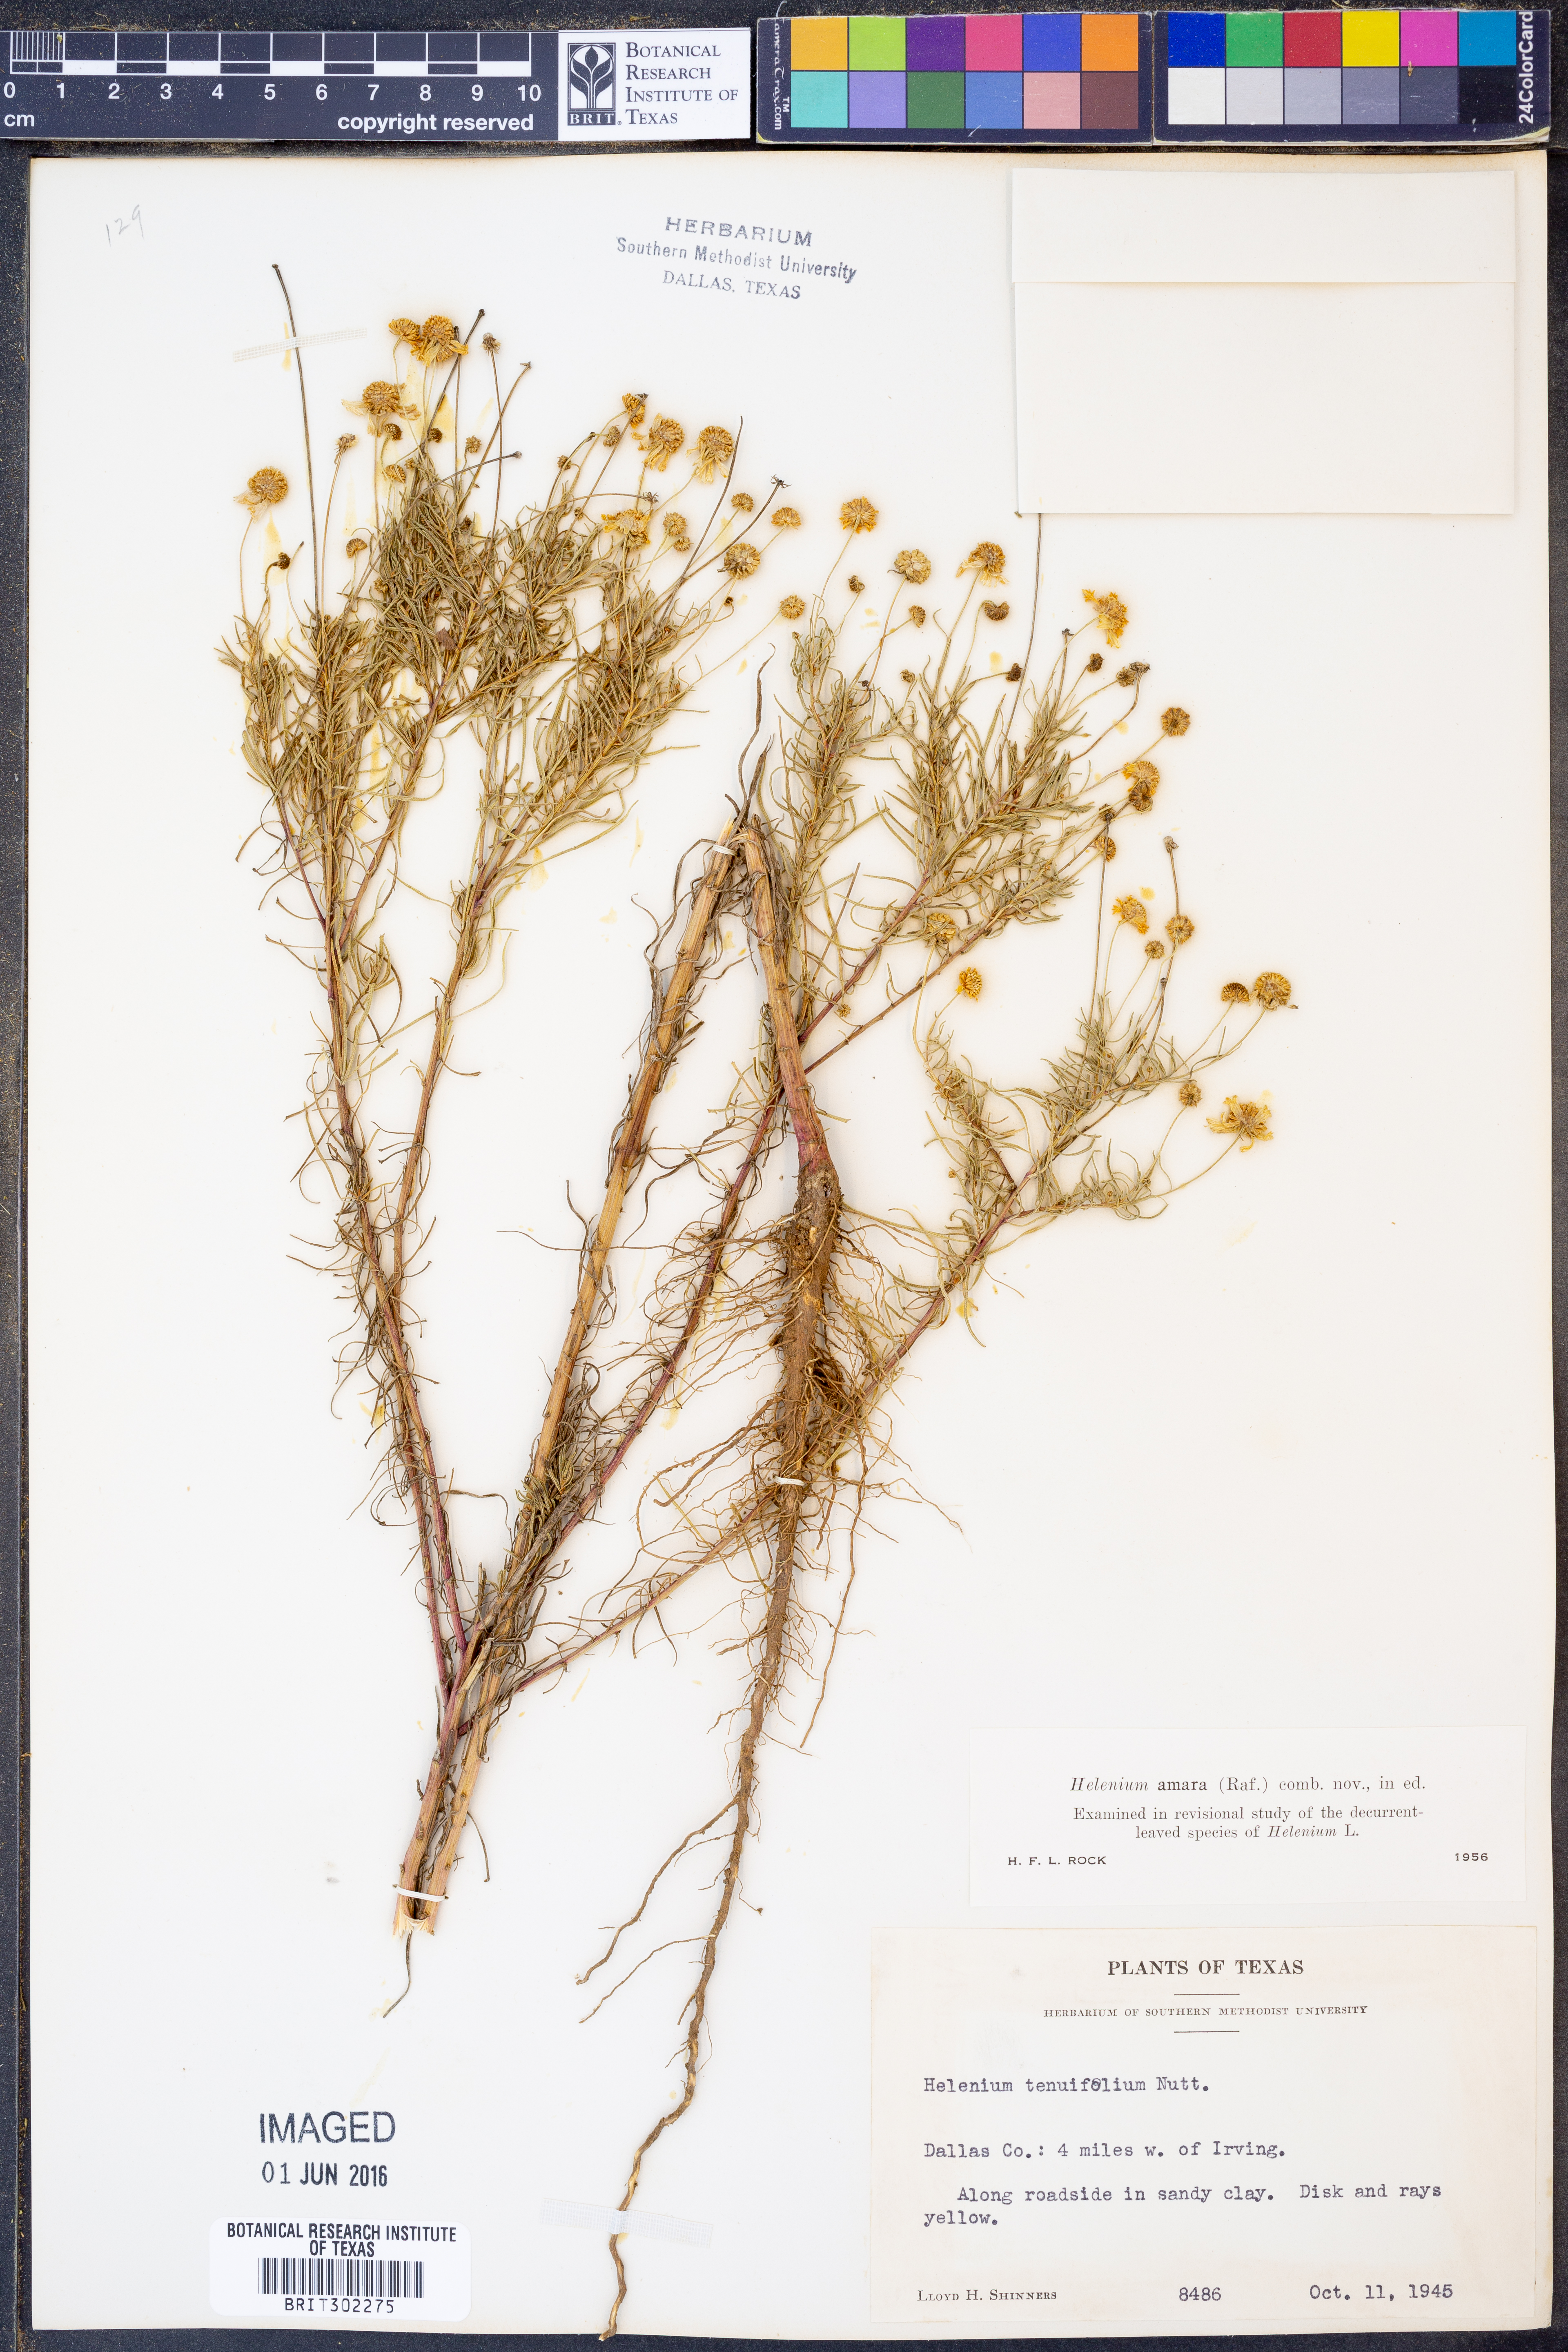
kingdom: Plantae
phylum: Tracheophyta
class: Magnoliopsida
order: Asterales
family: Asteraceae
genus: Helenium
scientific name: Helenium amarum
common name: Bitter sneezeweed
